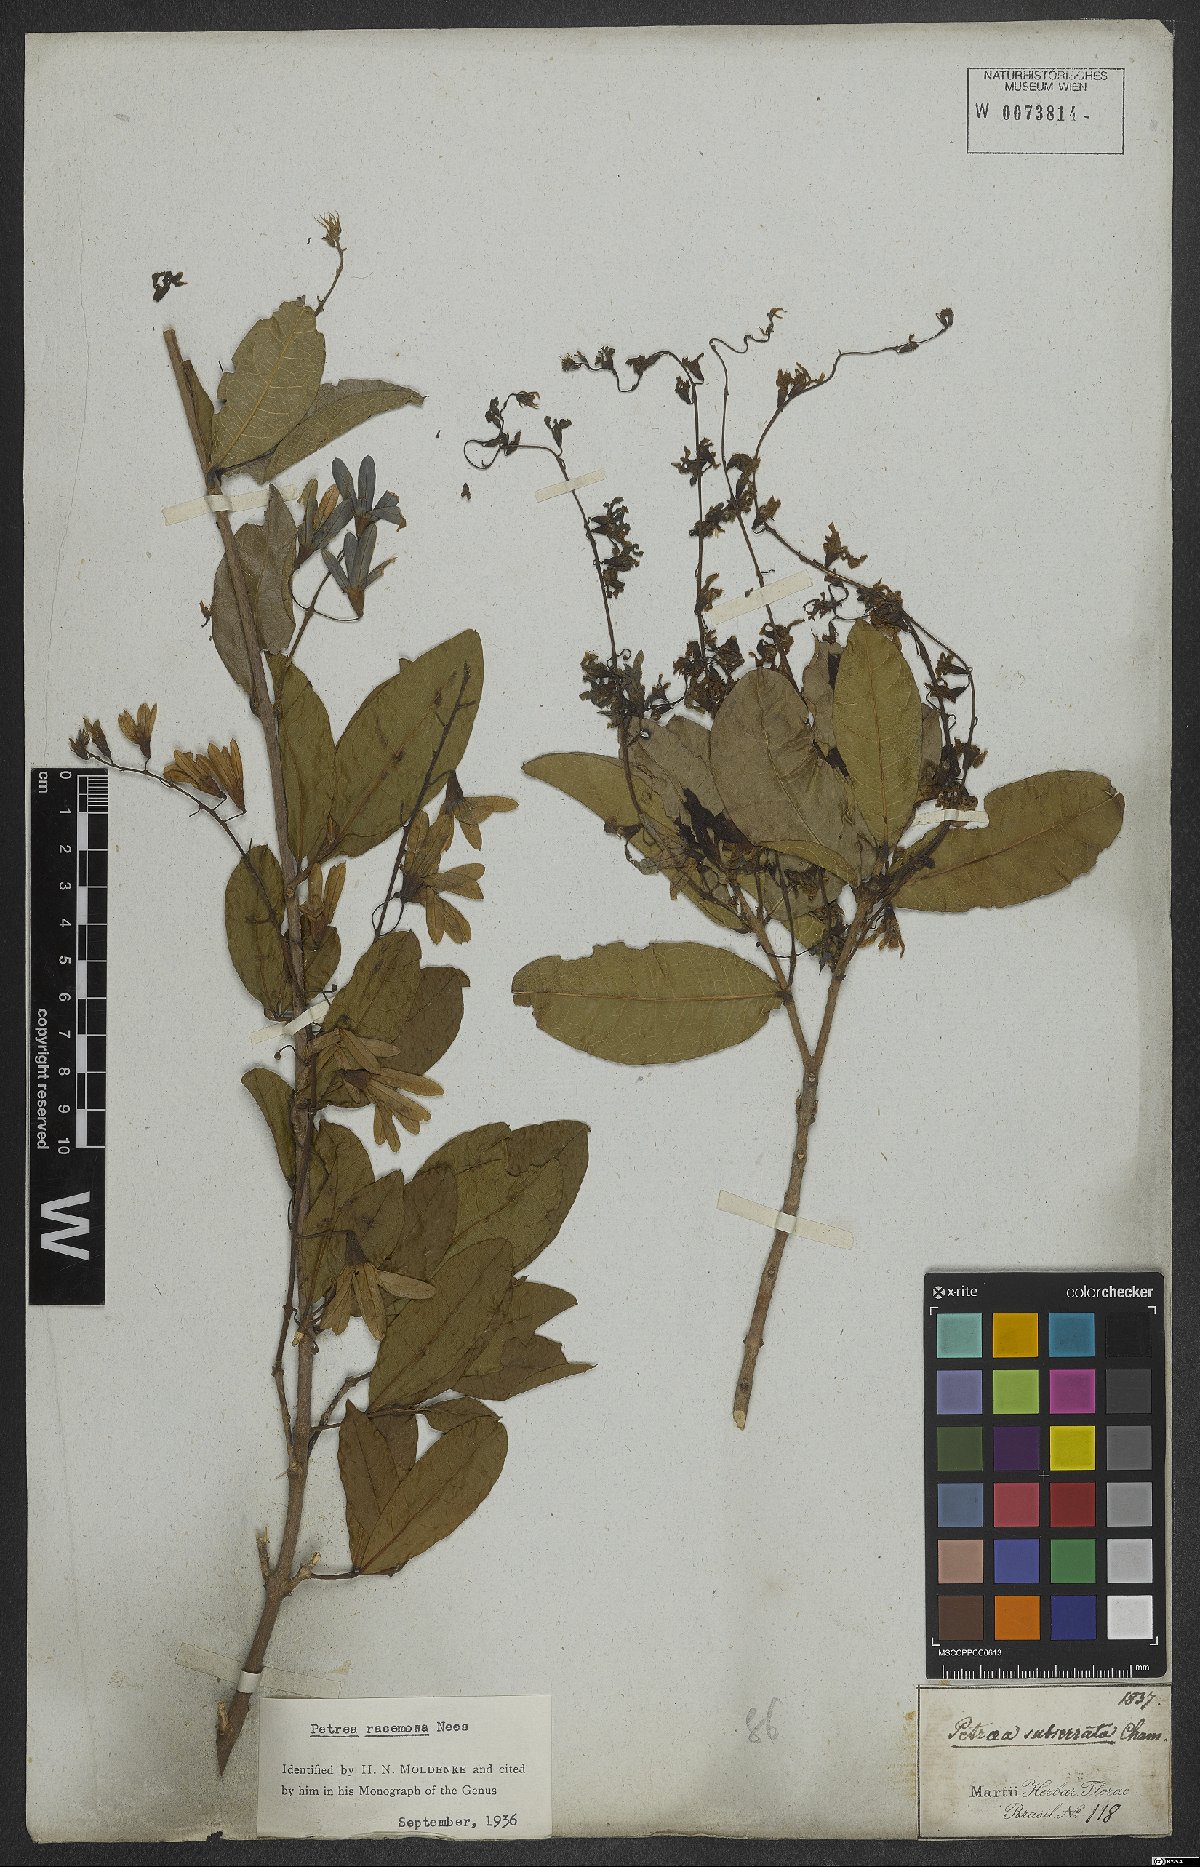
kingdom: Plantae
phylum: Tracheophyta
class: Magnoliopsida
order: Lamiales
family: Verbenaceae
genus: Petrea
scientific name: Petrea volubilis
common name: Queen's-wreath
